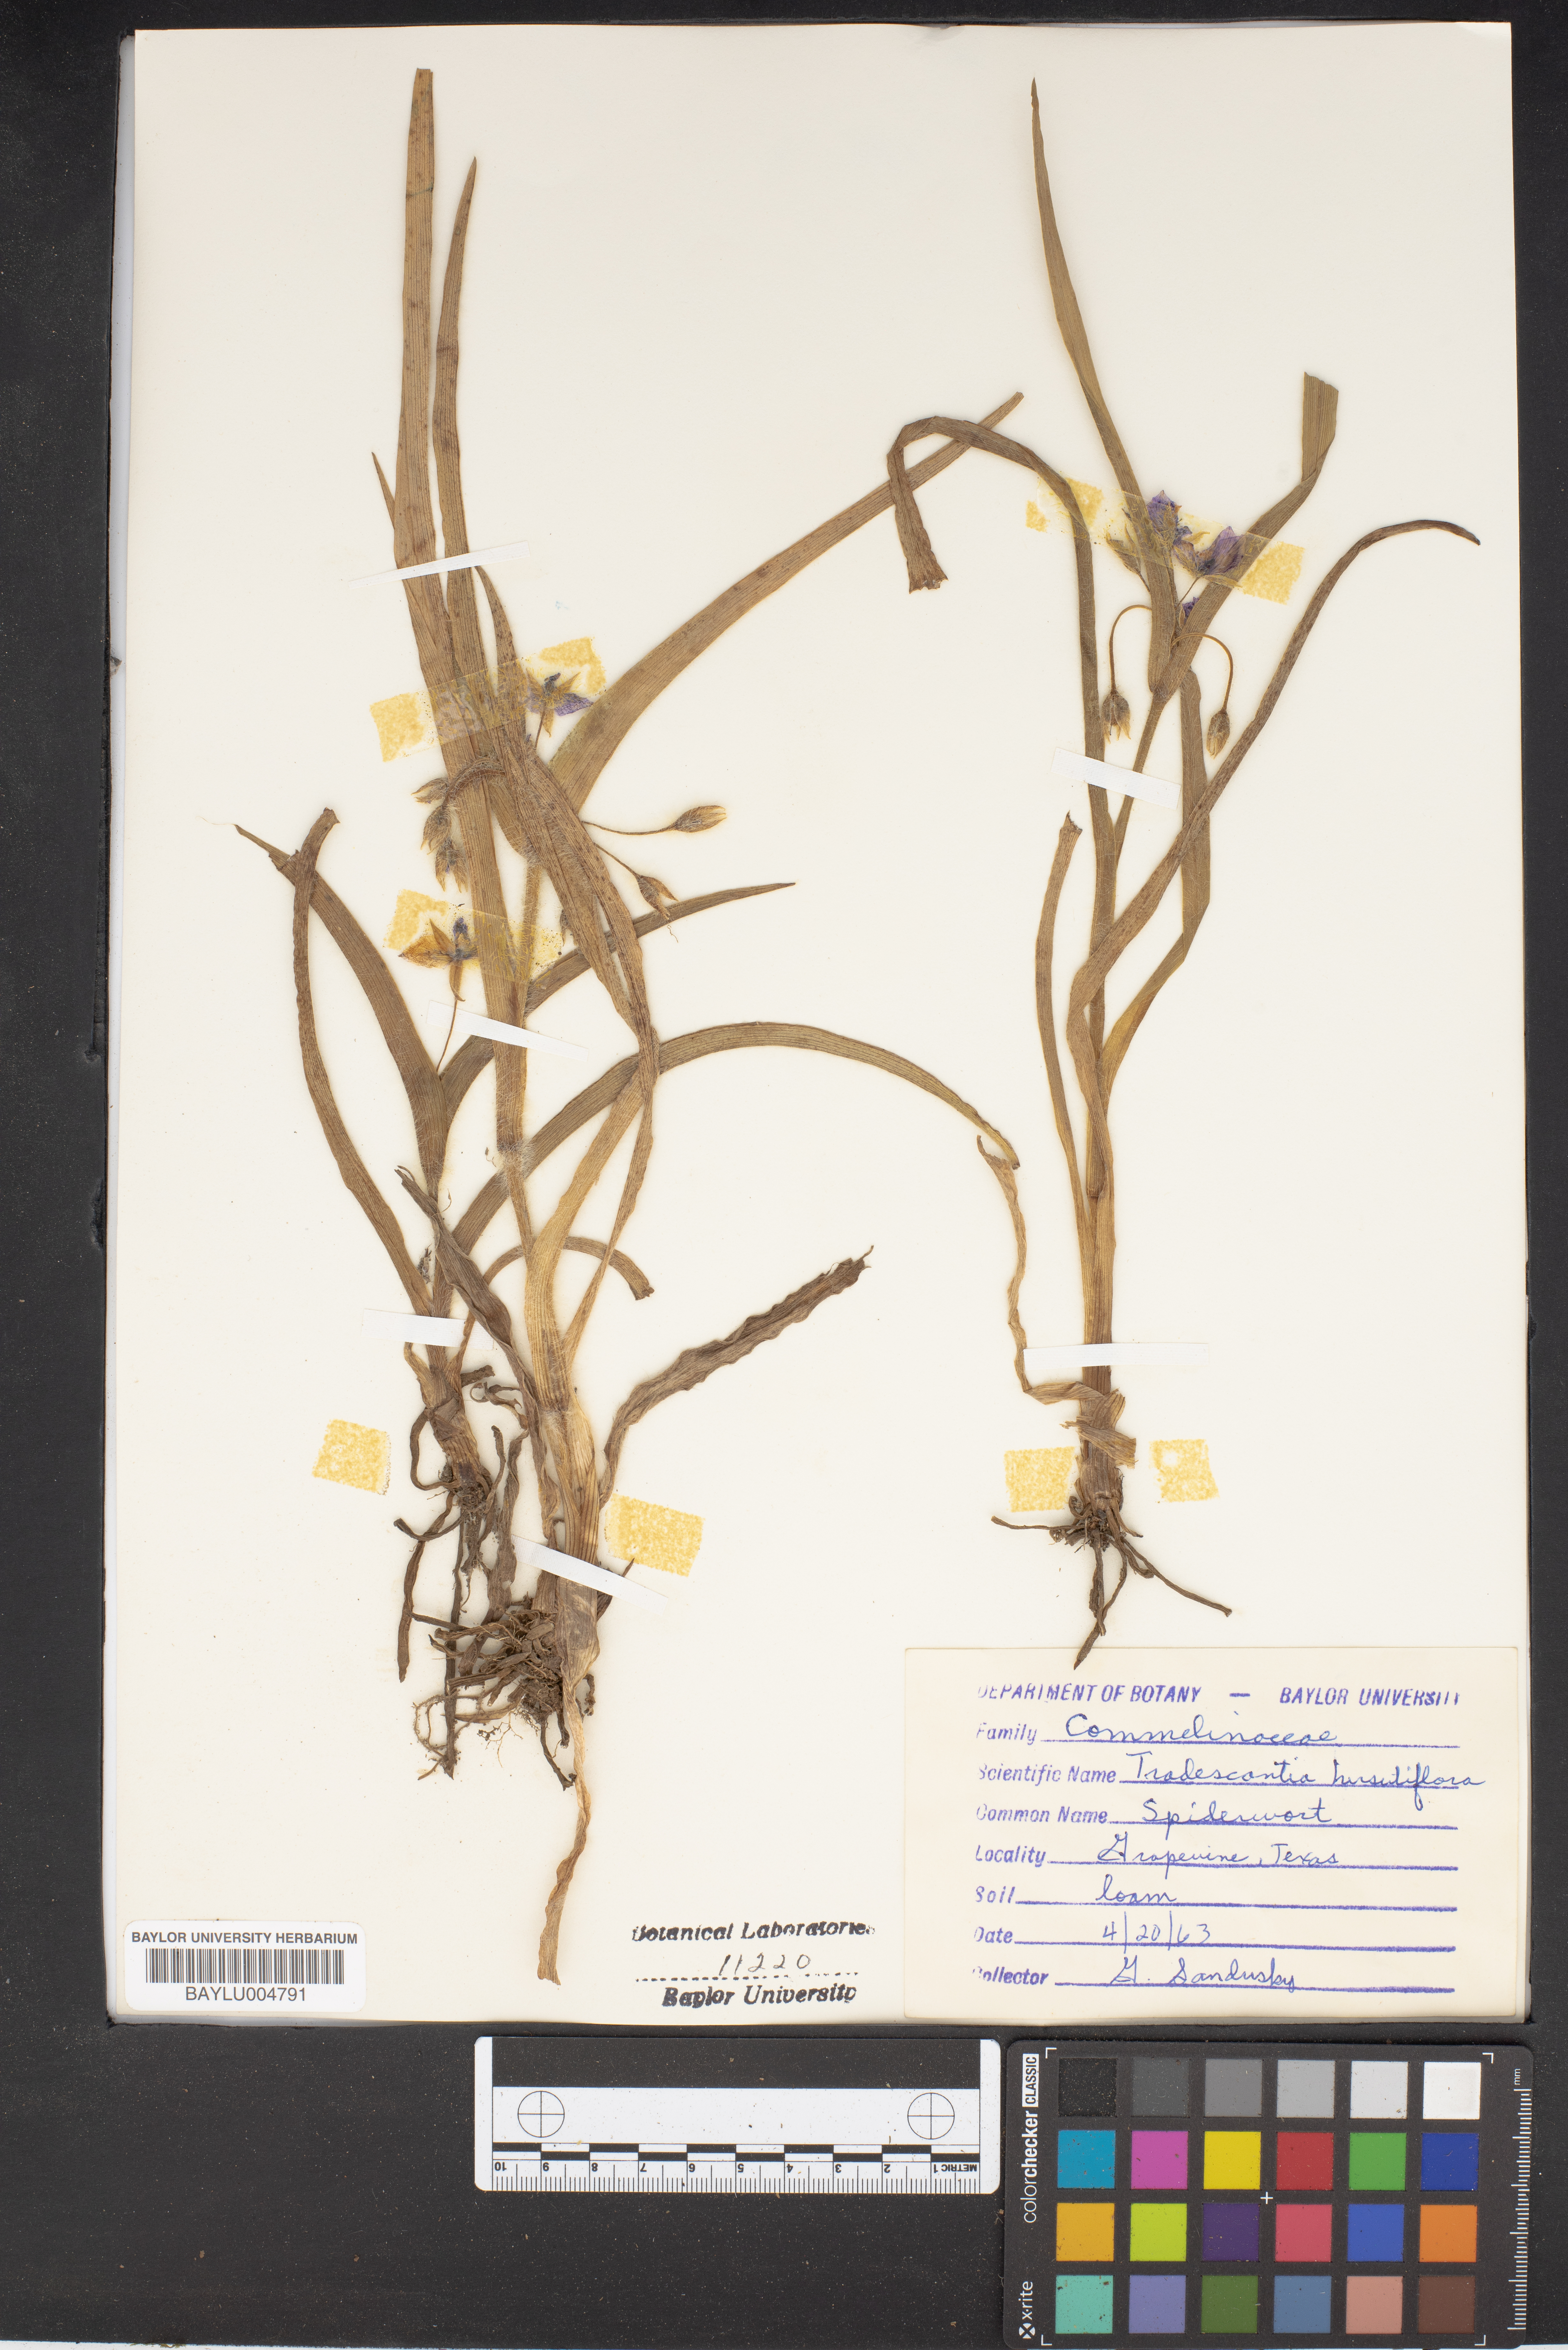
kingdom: Plantae
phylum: Tracheophyta
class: Liliopsida
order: Commelinales
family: Commelinaceae
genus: Tradescantia
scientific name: Tradescantia hirsutiflora
